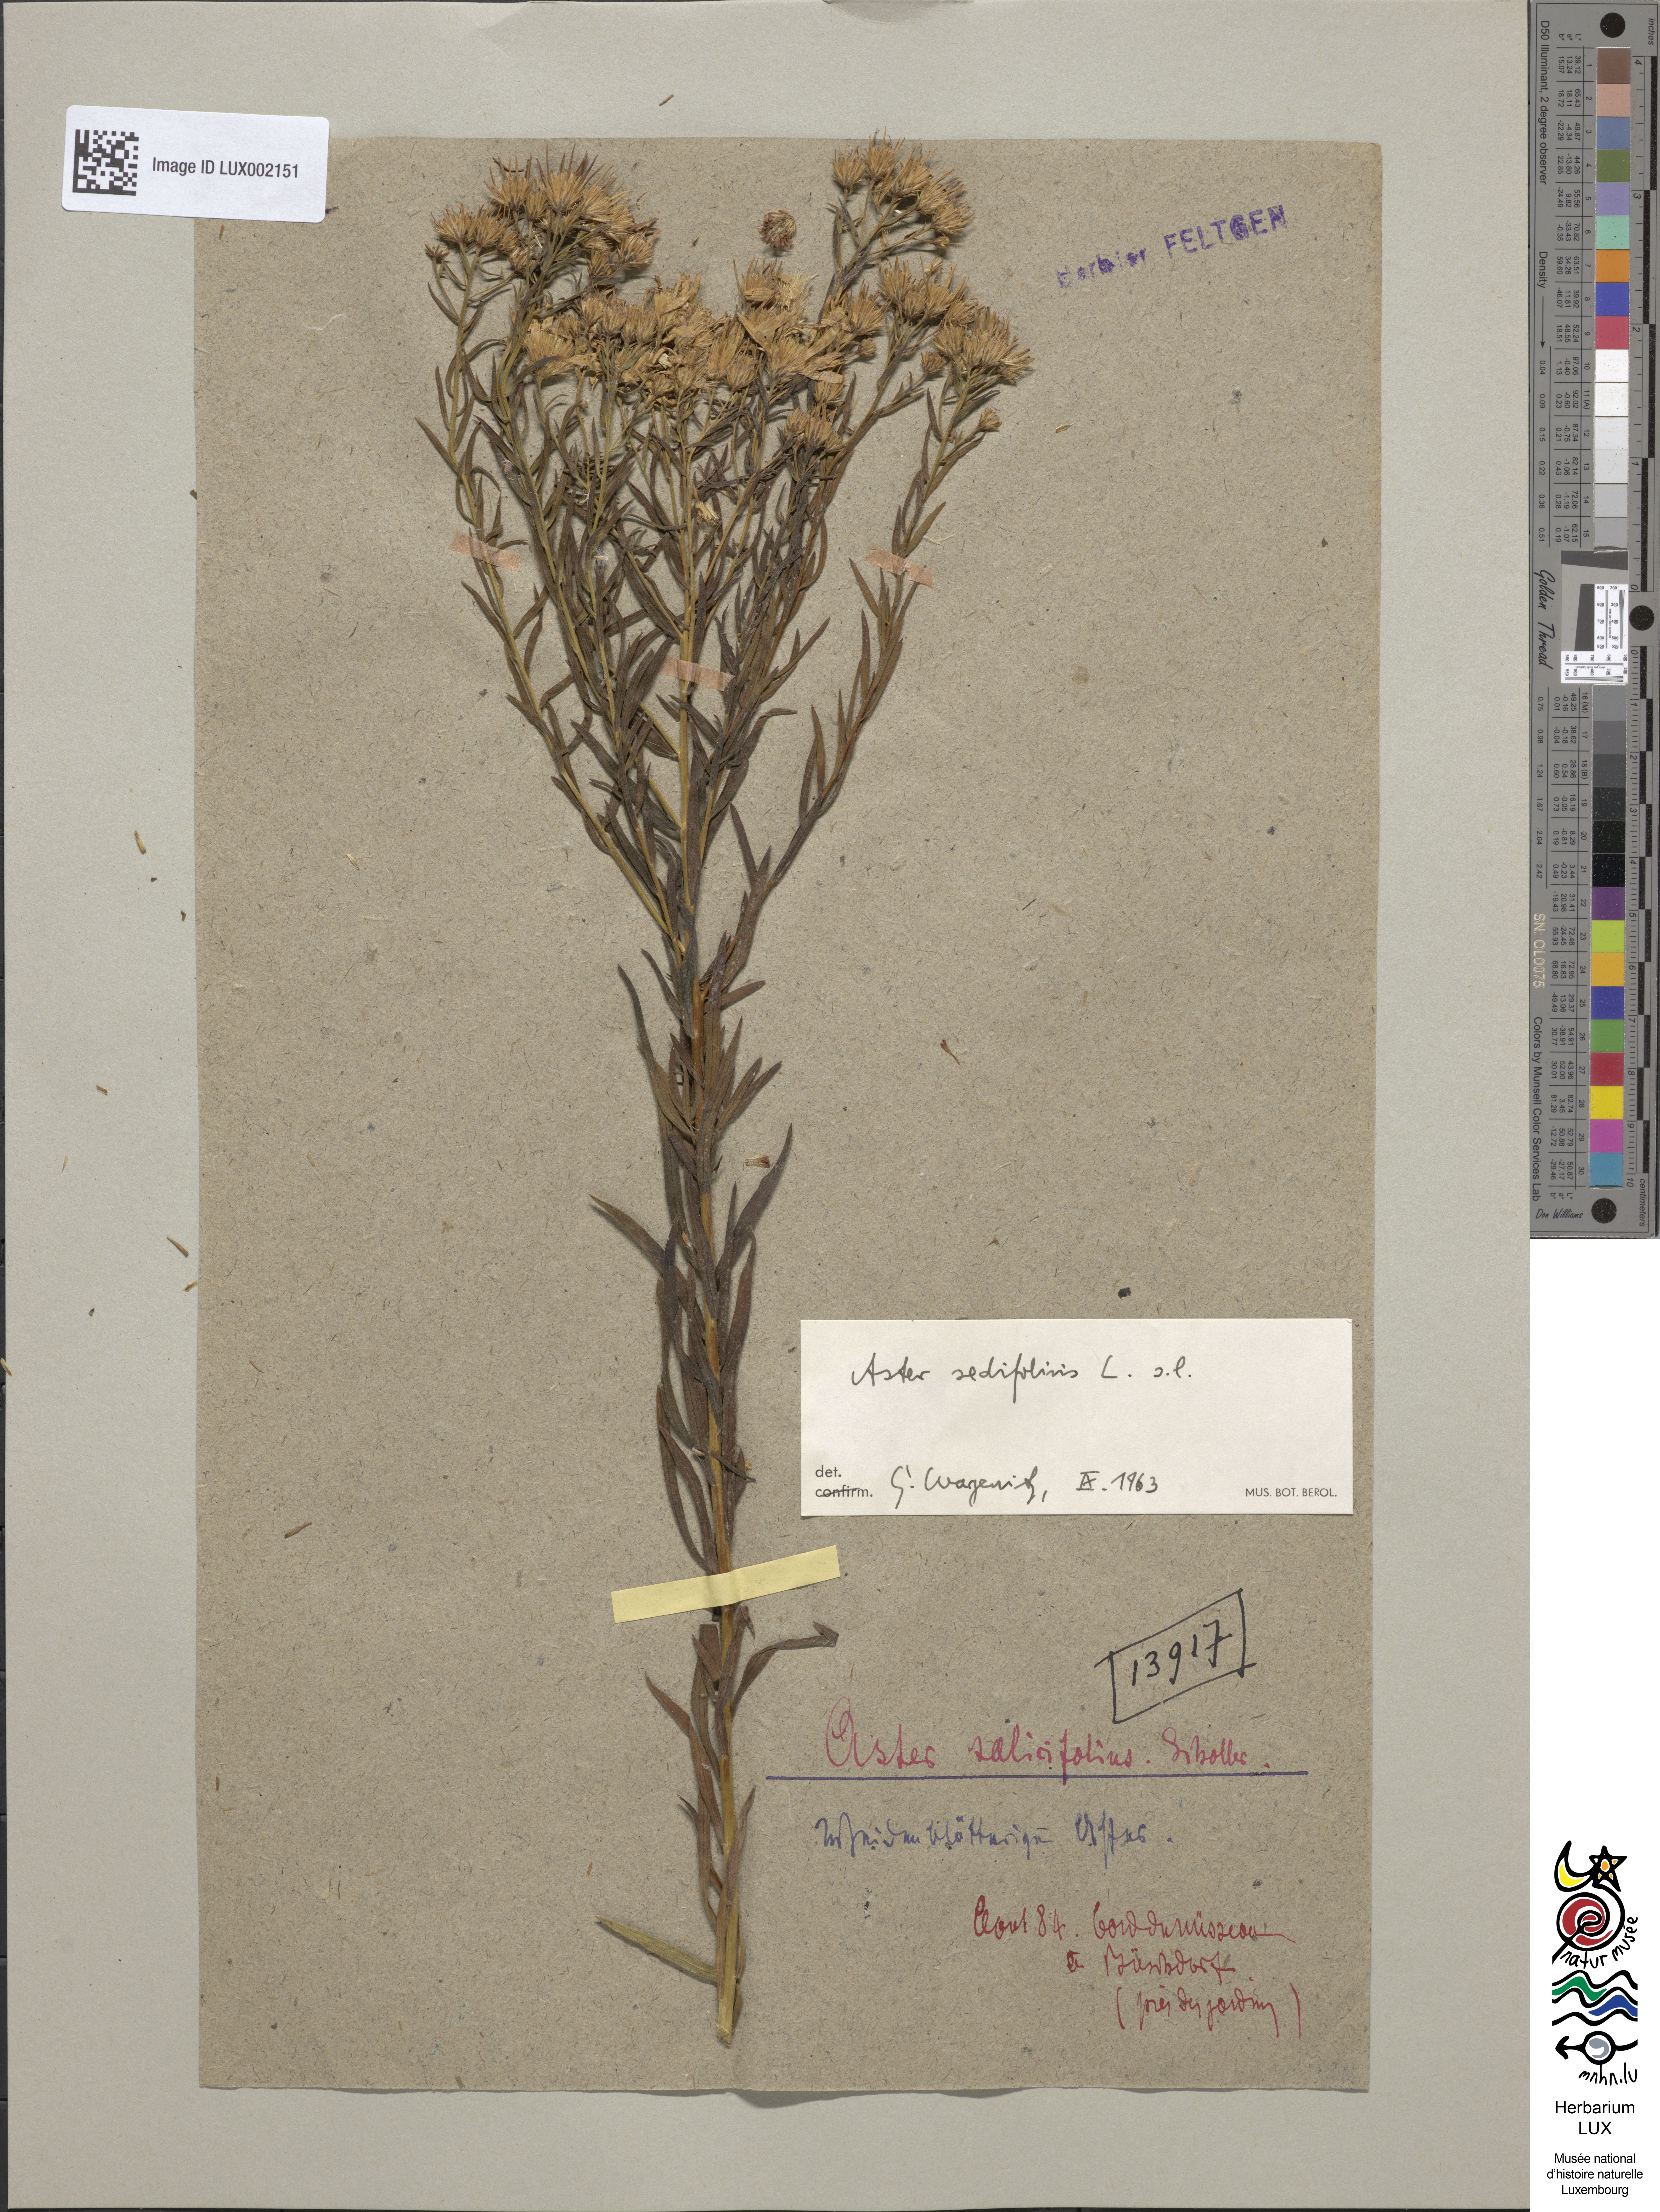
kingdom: Plantae
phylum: Tracheophyta
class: Magnoliopsida
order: Asterales
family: Asteraceae
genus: Symphyotrichum
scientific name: Symphyotrichum salignum
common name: Common michaelmas daisy
